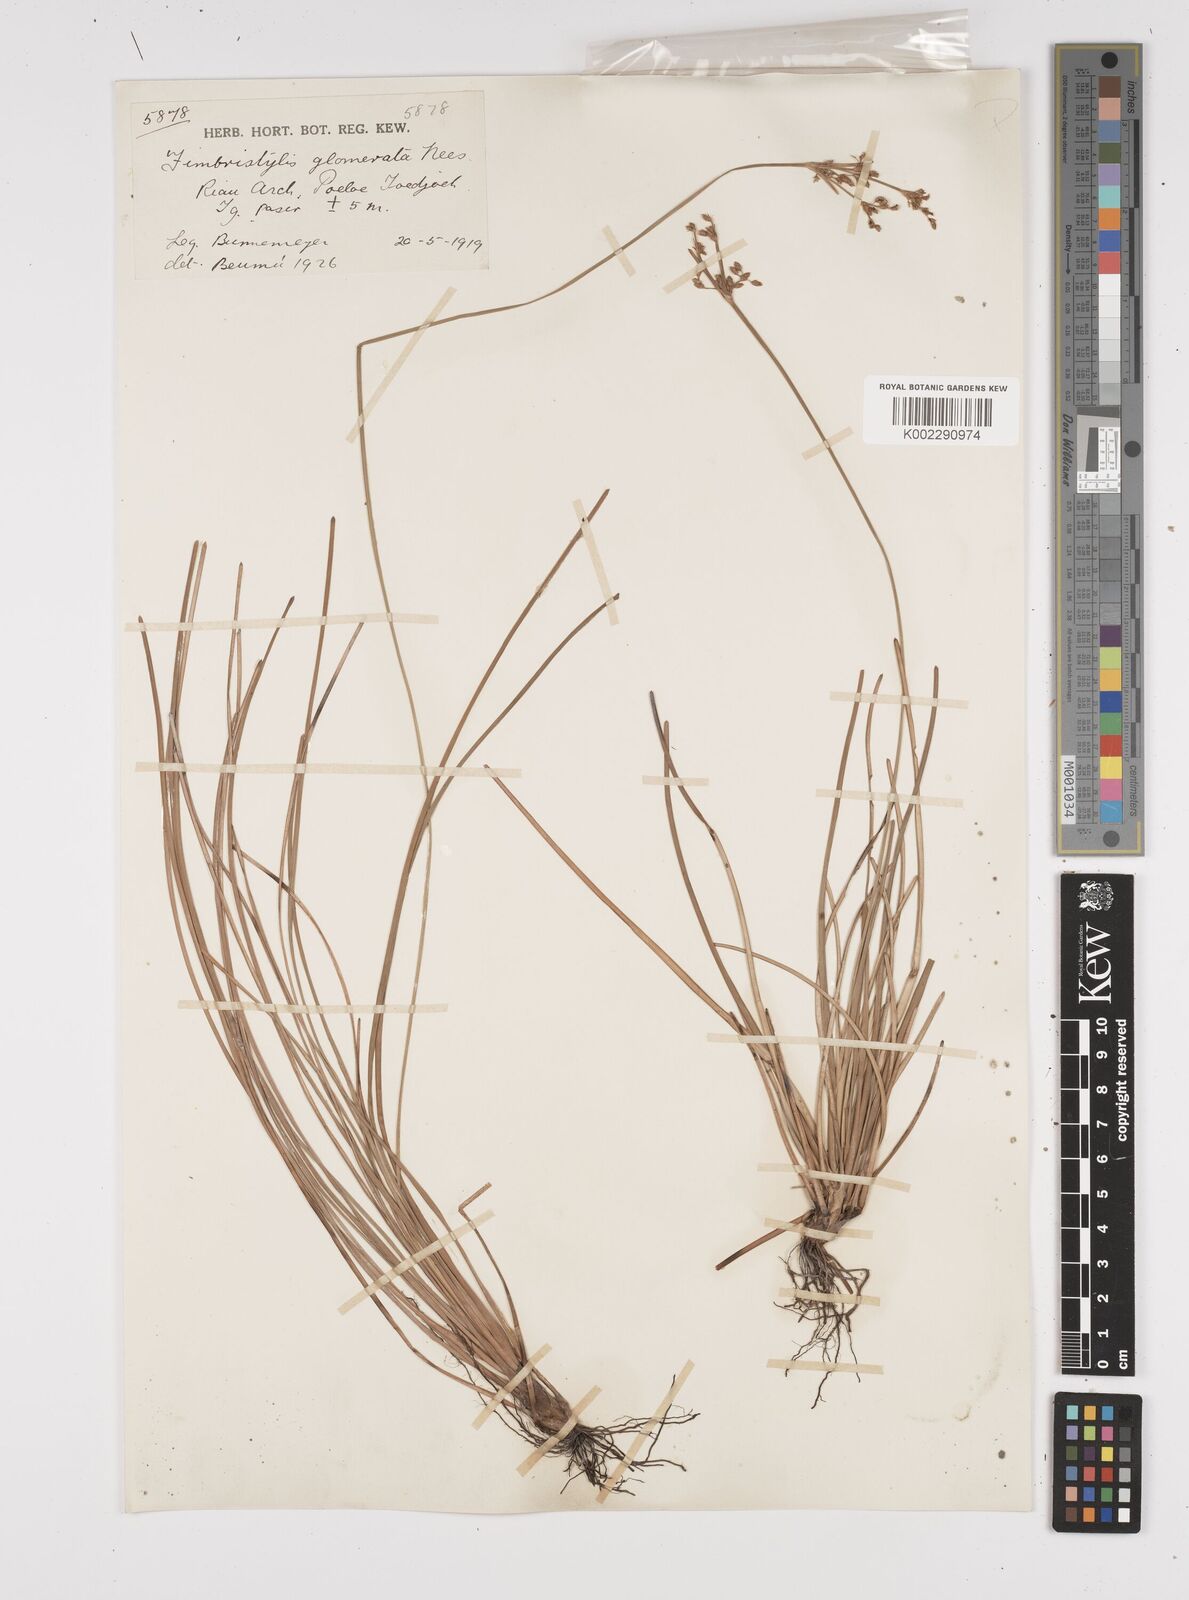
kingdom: Plantae
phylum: Tracheophyta
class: Liliopsida
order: Poales
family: Cyperaceae
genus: Fimbristylis
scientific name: Fimbristylis cymosa
